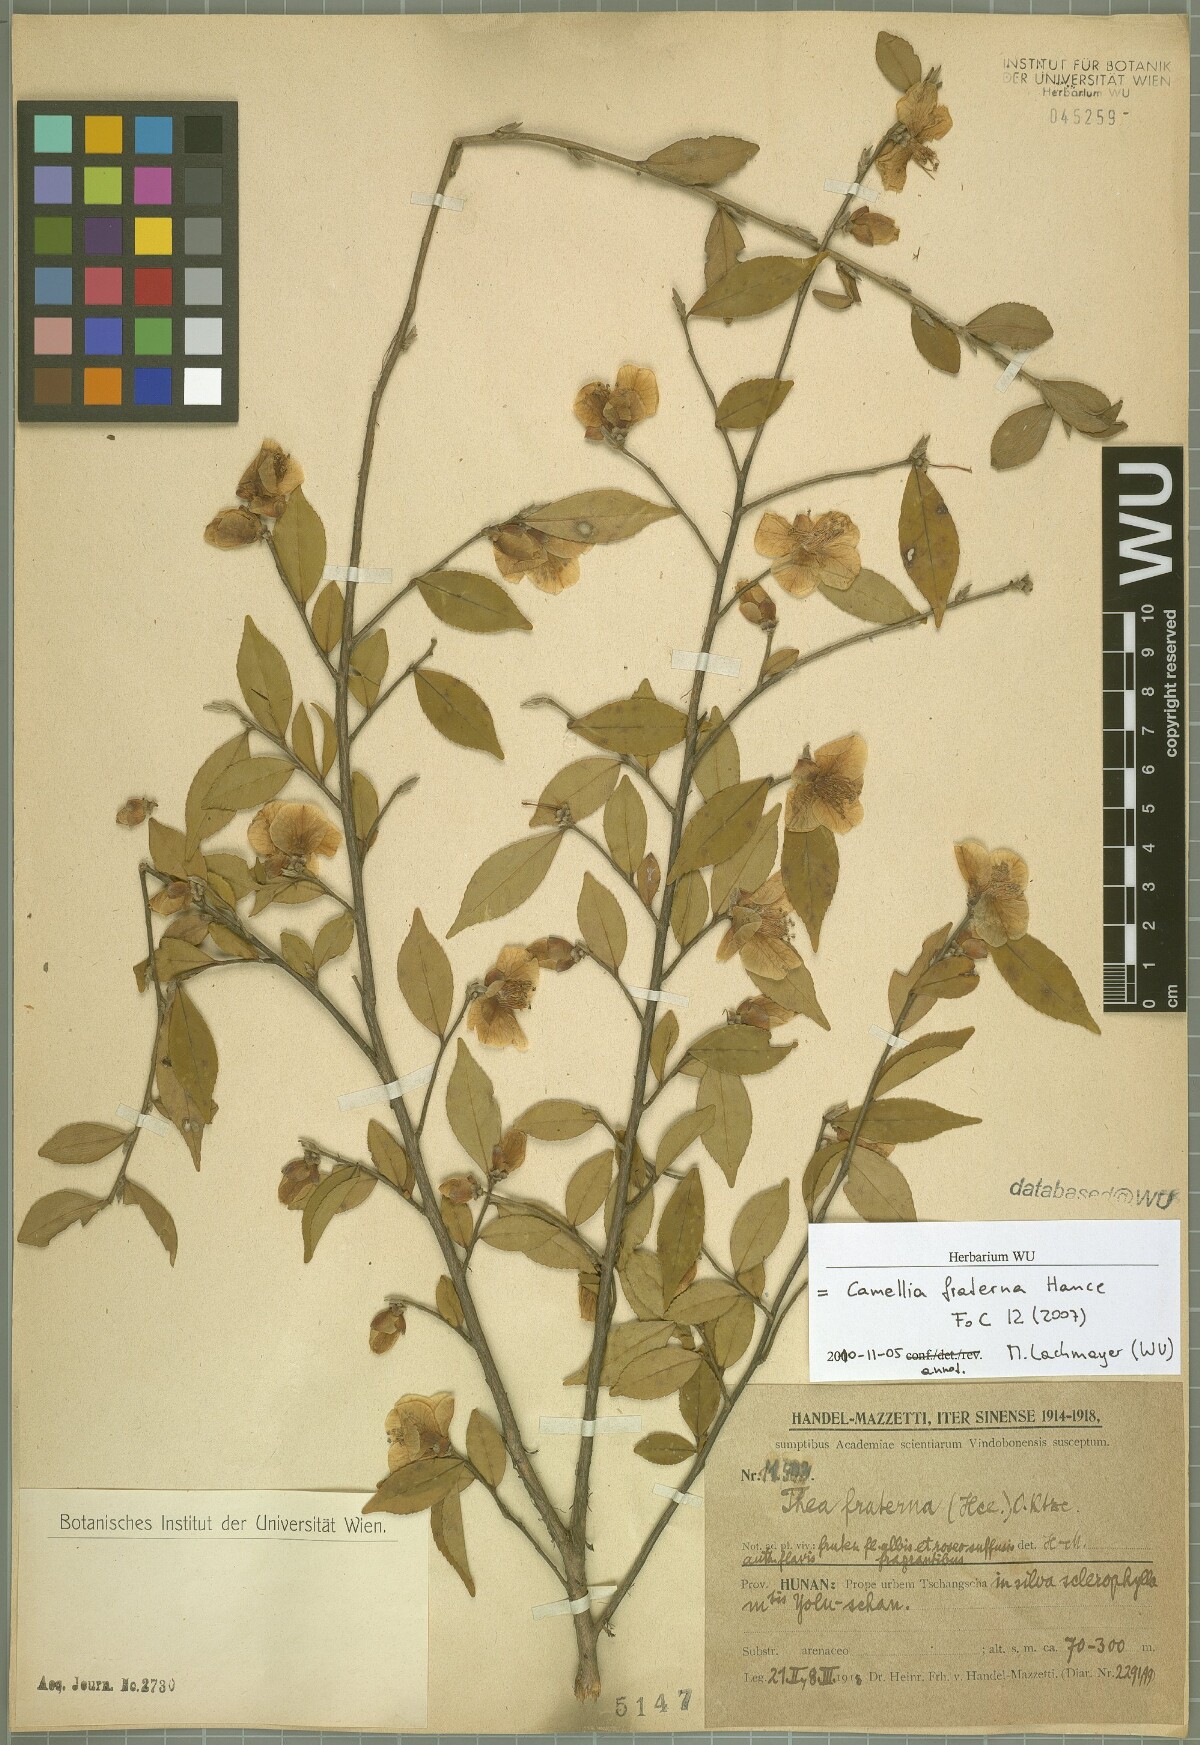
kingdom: Plantae
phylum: Tracheophyta
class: Magnoliopsida
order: Ericales
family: Theaceae
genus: Camellia
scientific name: Camellia fraterna
